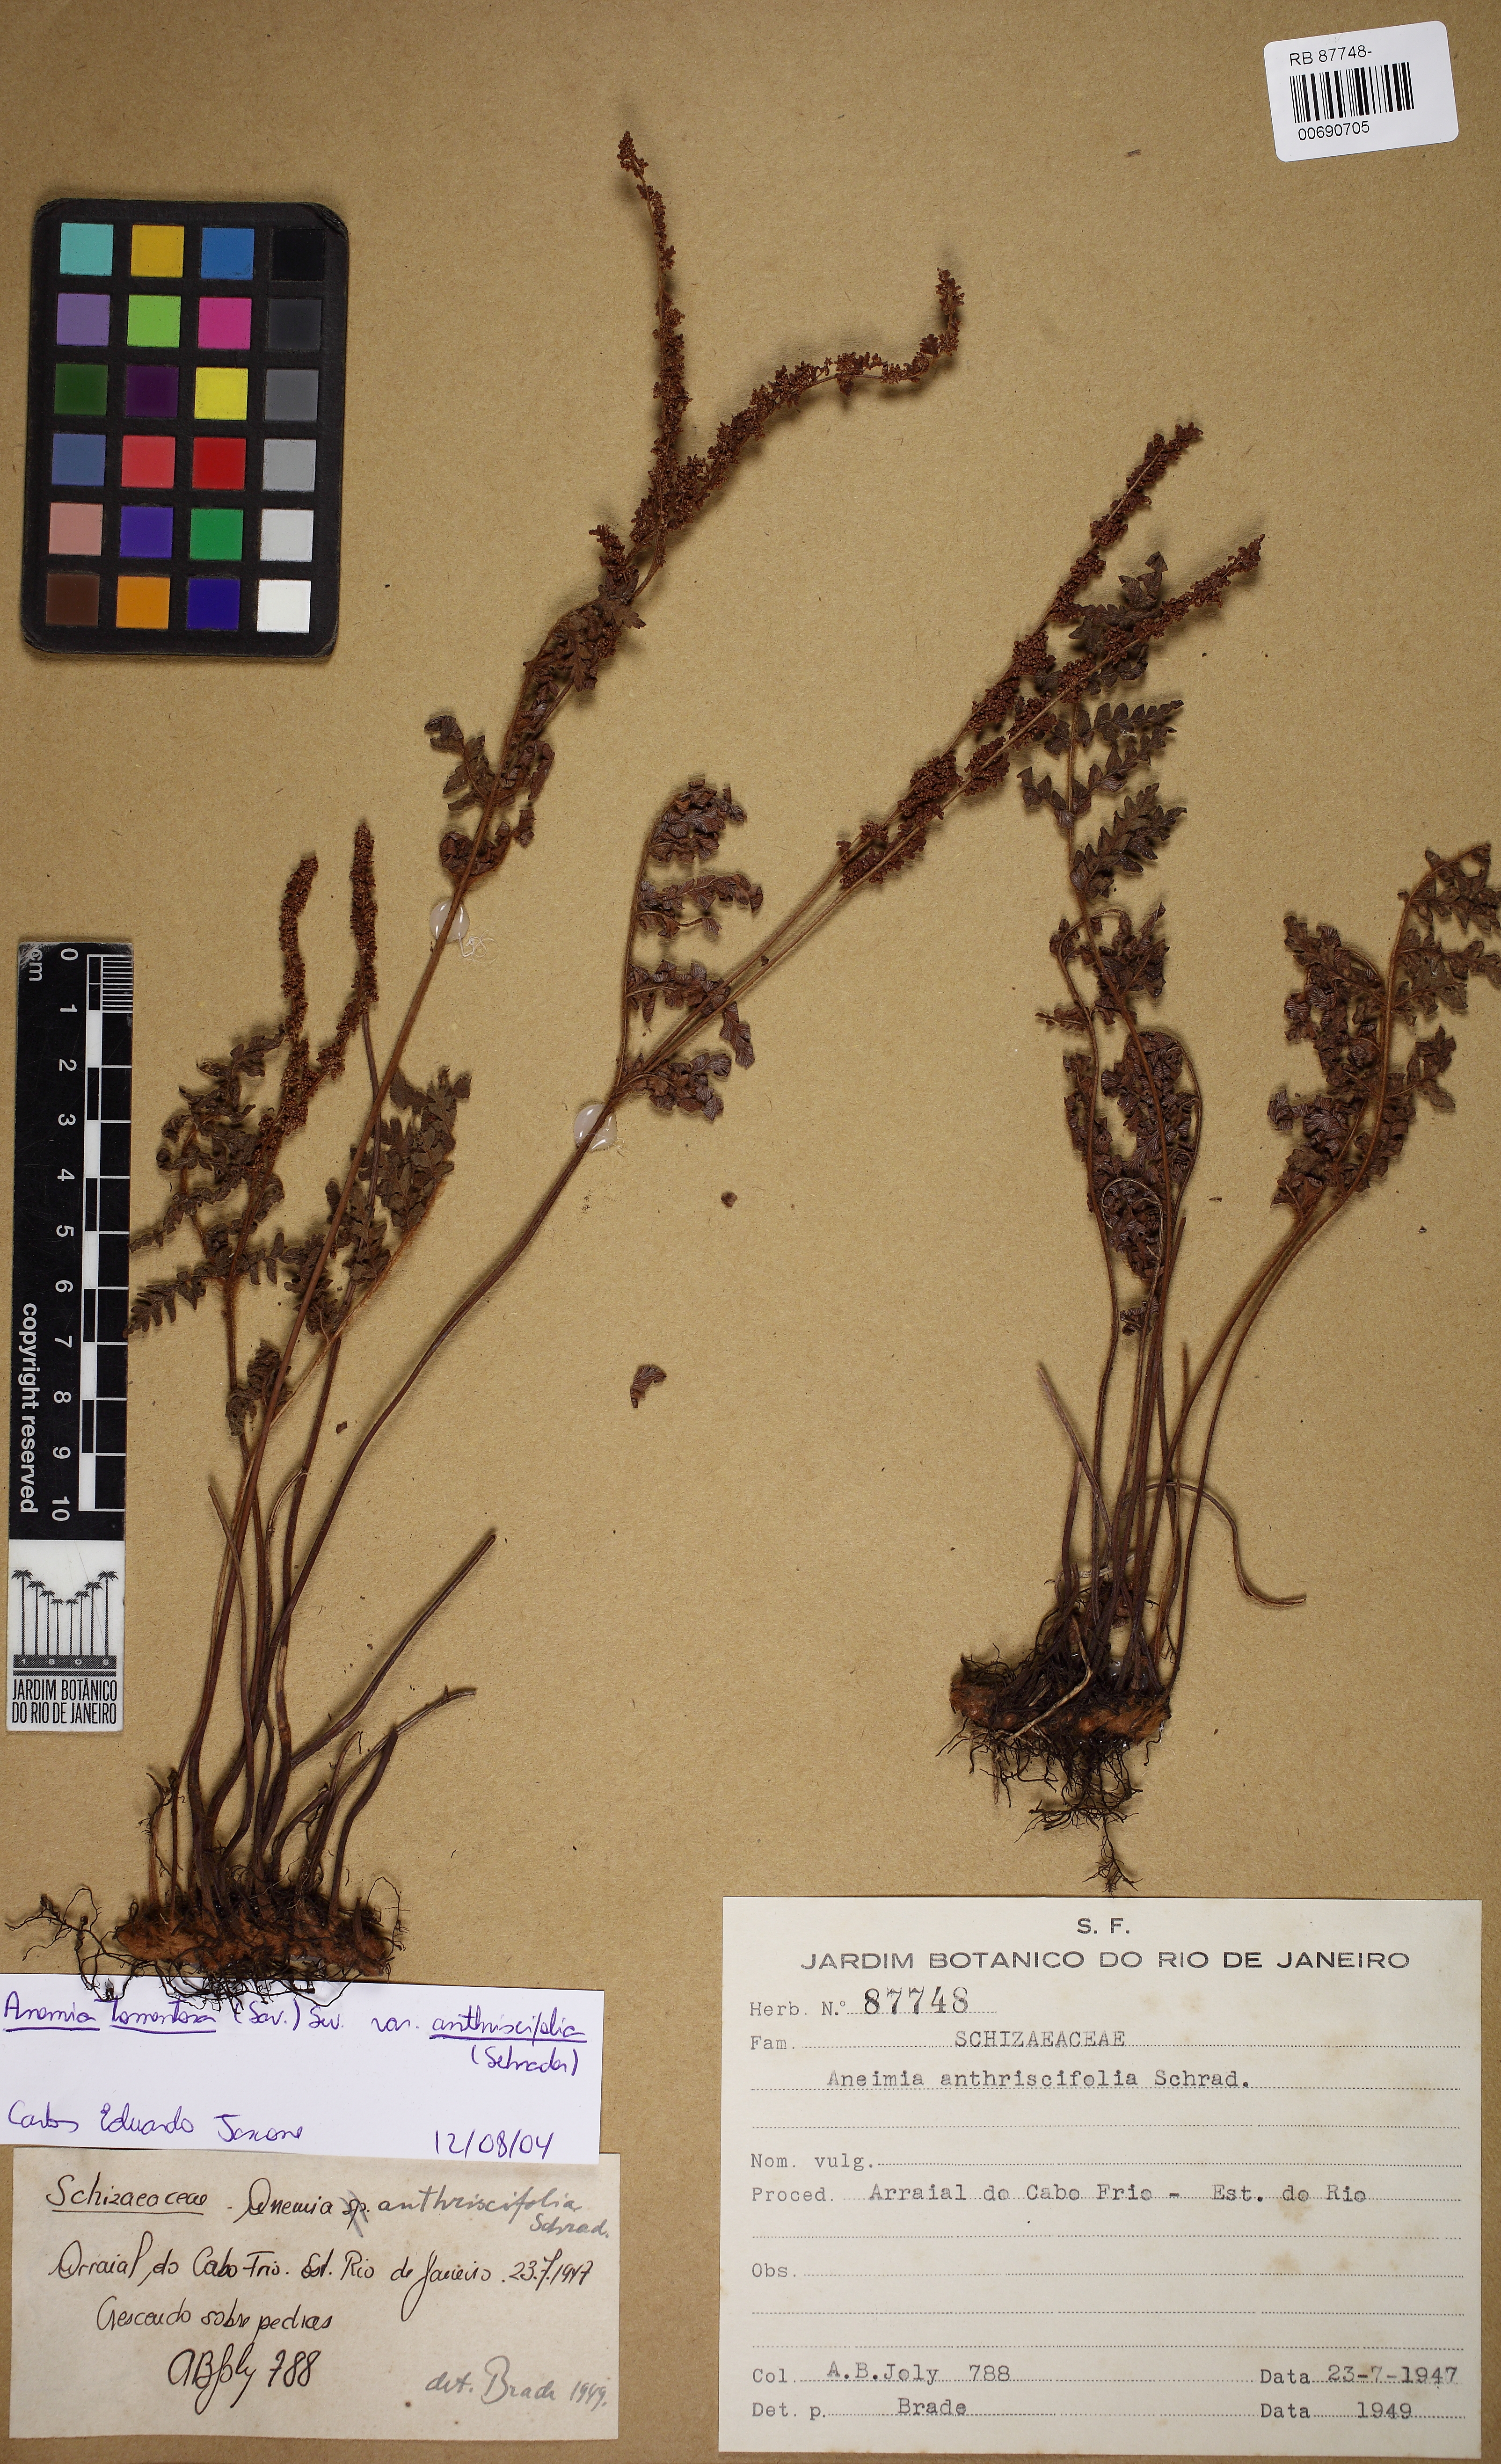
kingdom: Plantae
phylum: Tracheophyta
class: Polypodiopsida
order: Schizaeales
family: Anemiaceae
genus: Anemia
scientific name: Anemia tomentosa
